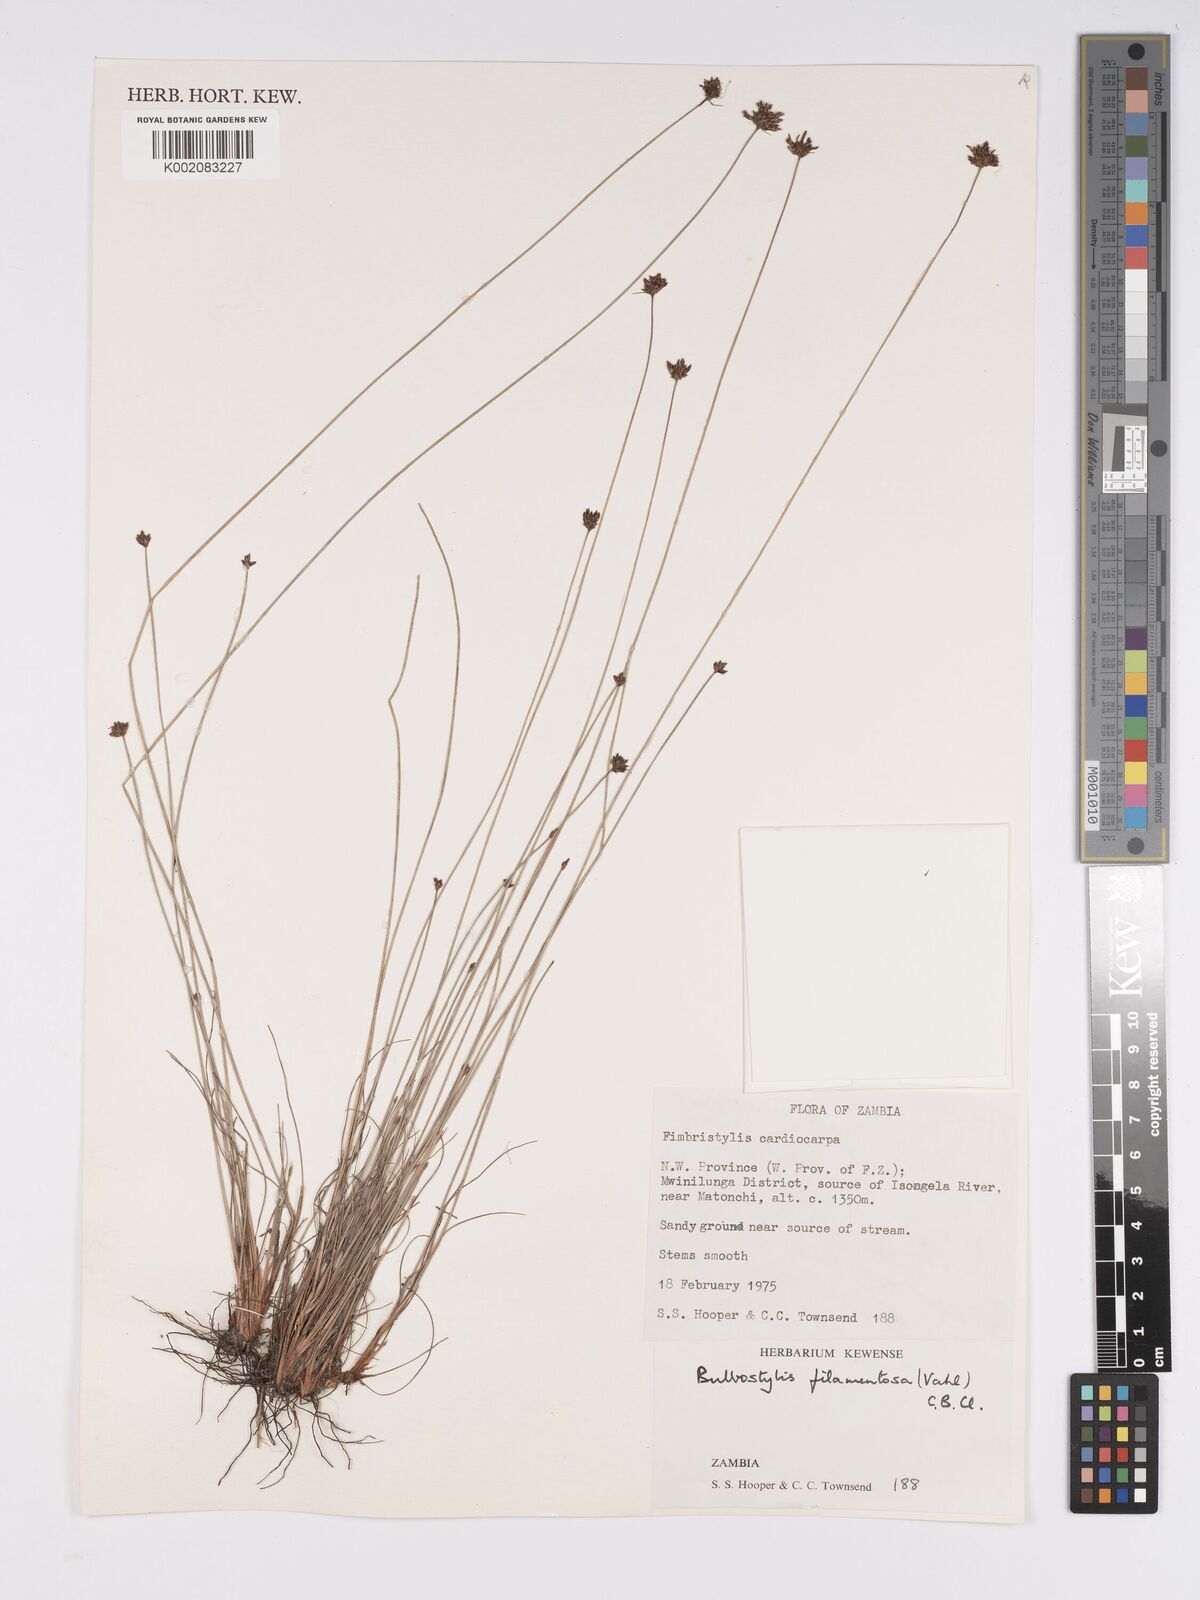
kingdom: Plantae
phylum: Tracheophyta
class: Liliopsida
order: Poales
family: Cyperaceae
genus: Bulbostylis
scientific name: Bulbostylis filamentosa
